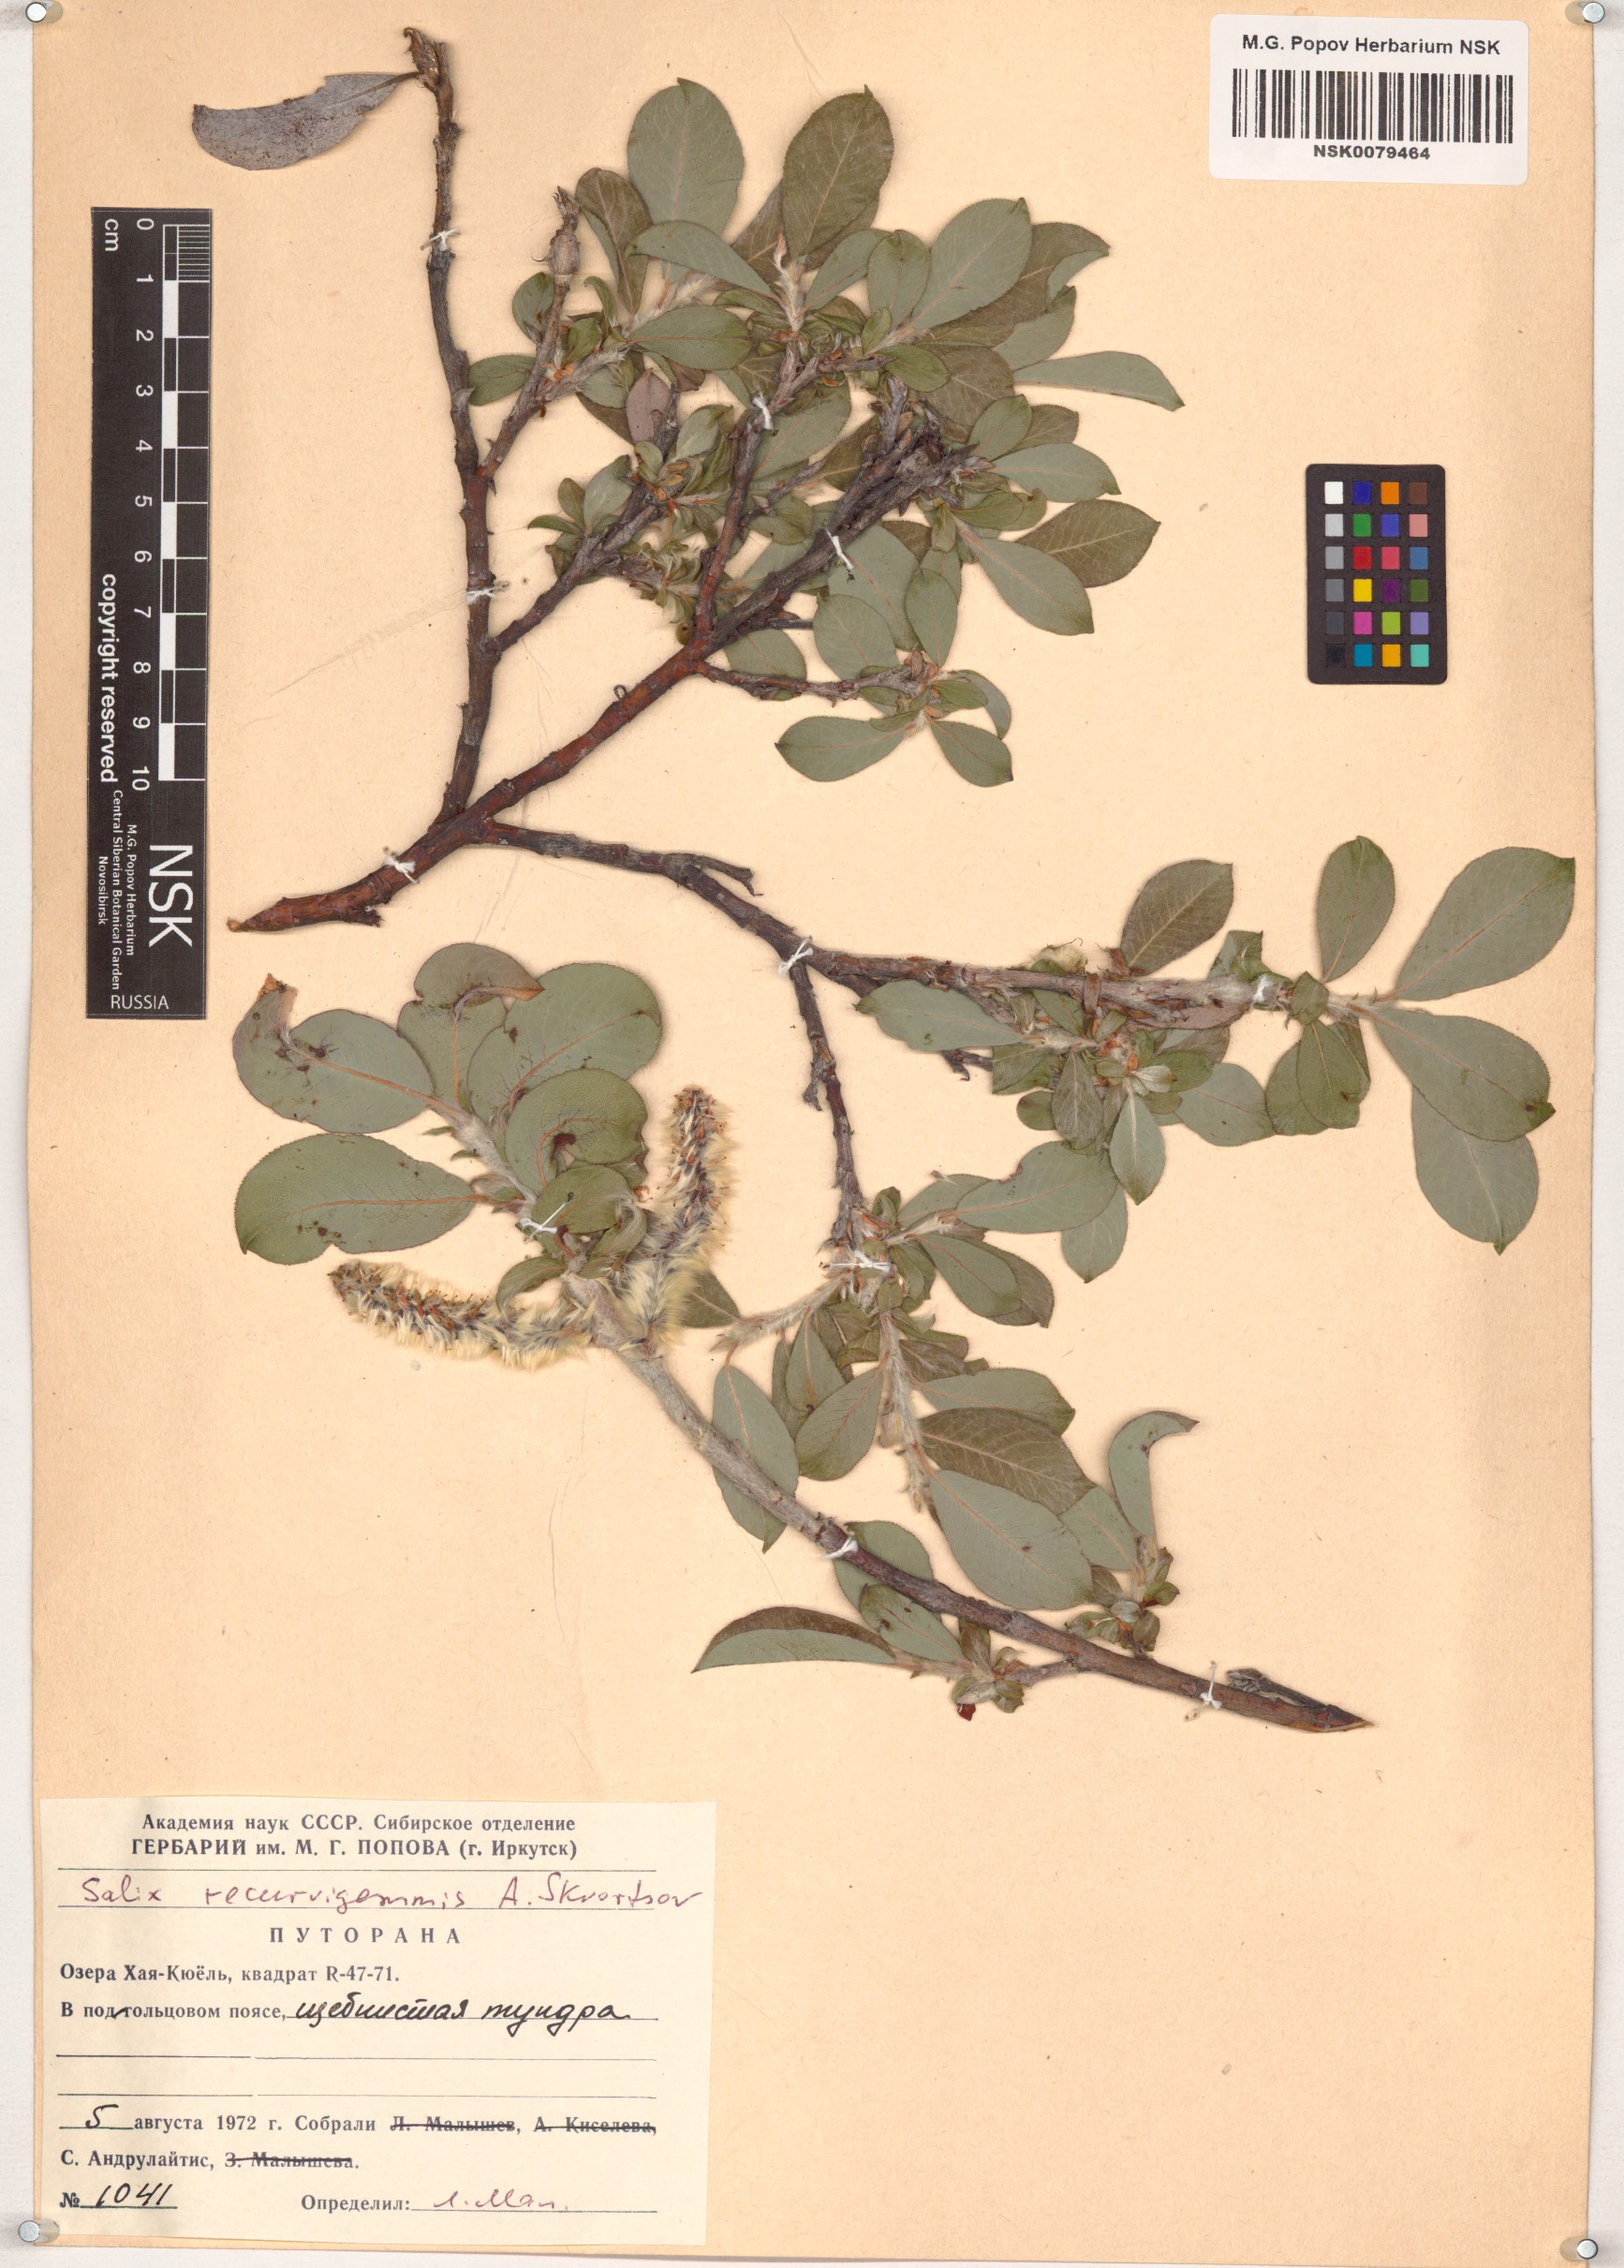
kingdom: Plantae
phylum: Tracheophyta
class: Magnoliopsida
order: Malpighiales
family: Salicaceae
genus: Salix
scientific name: Salix recurvigemmata
